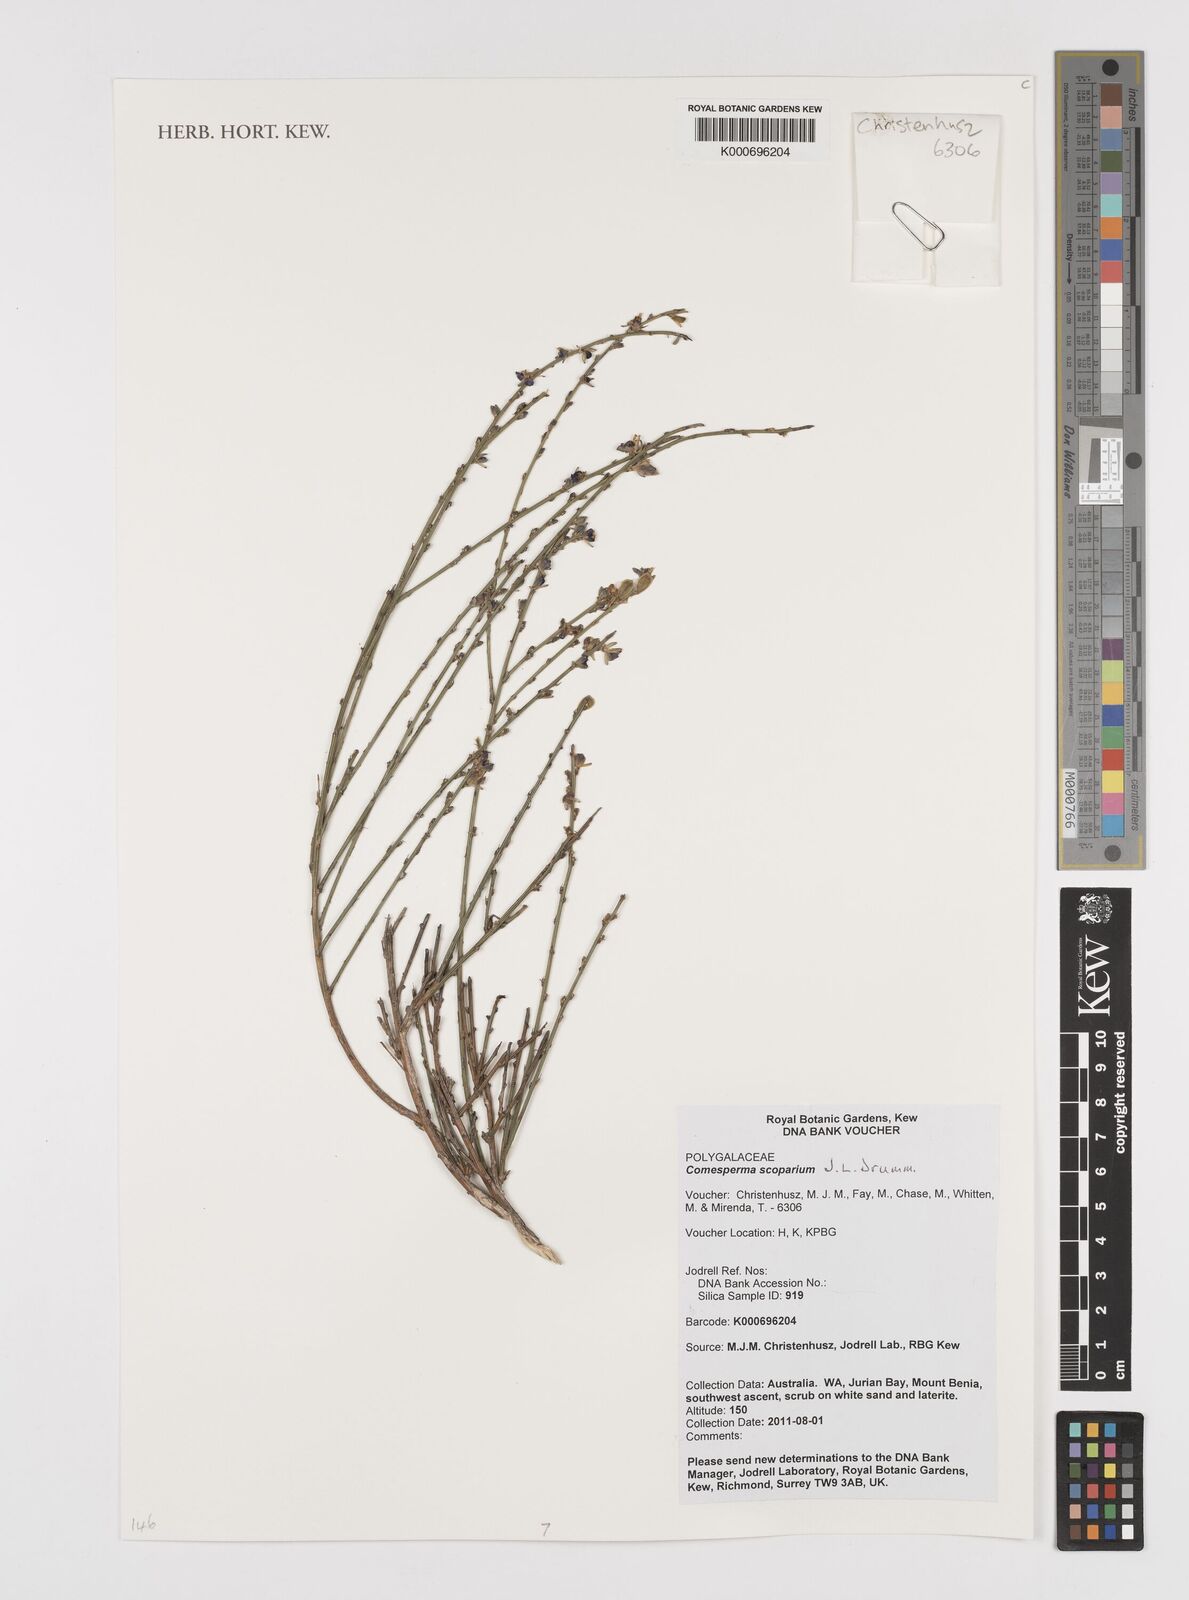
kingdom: Plantae
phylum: Tracheophyta
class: Magnoliopsida
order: Fabales
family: Polygalaceae
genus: Comesperma
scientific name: Comesperma scoparium
